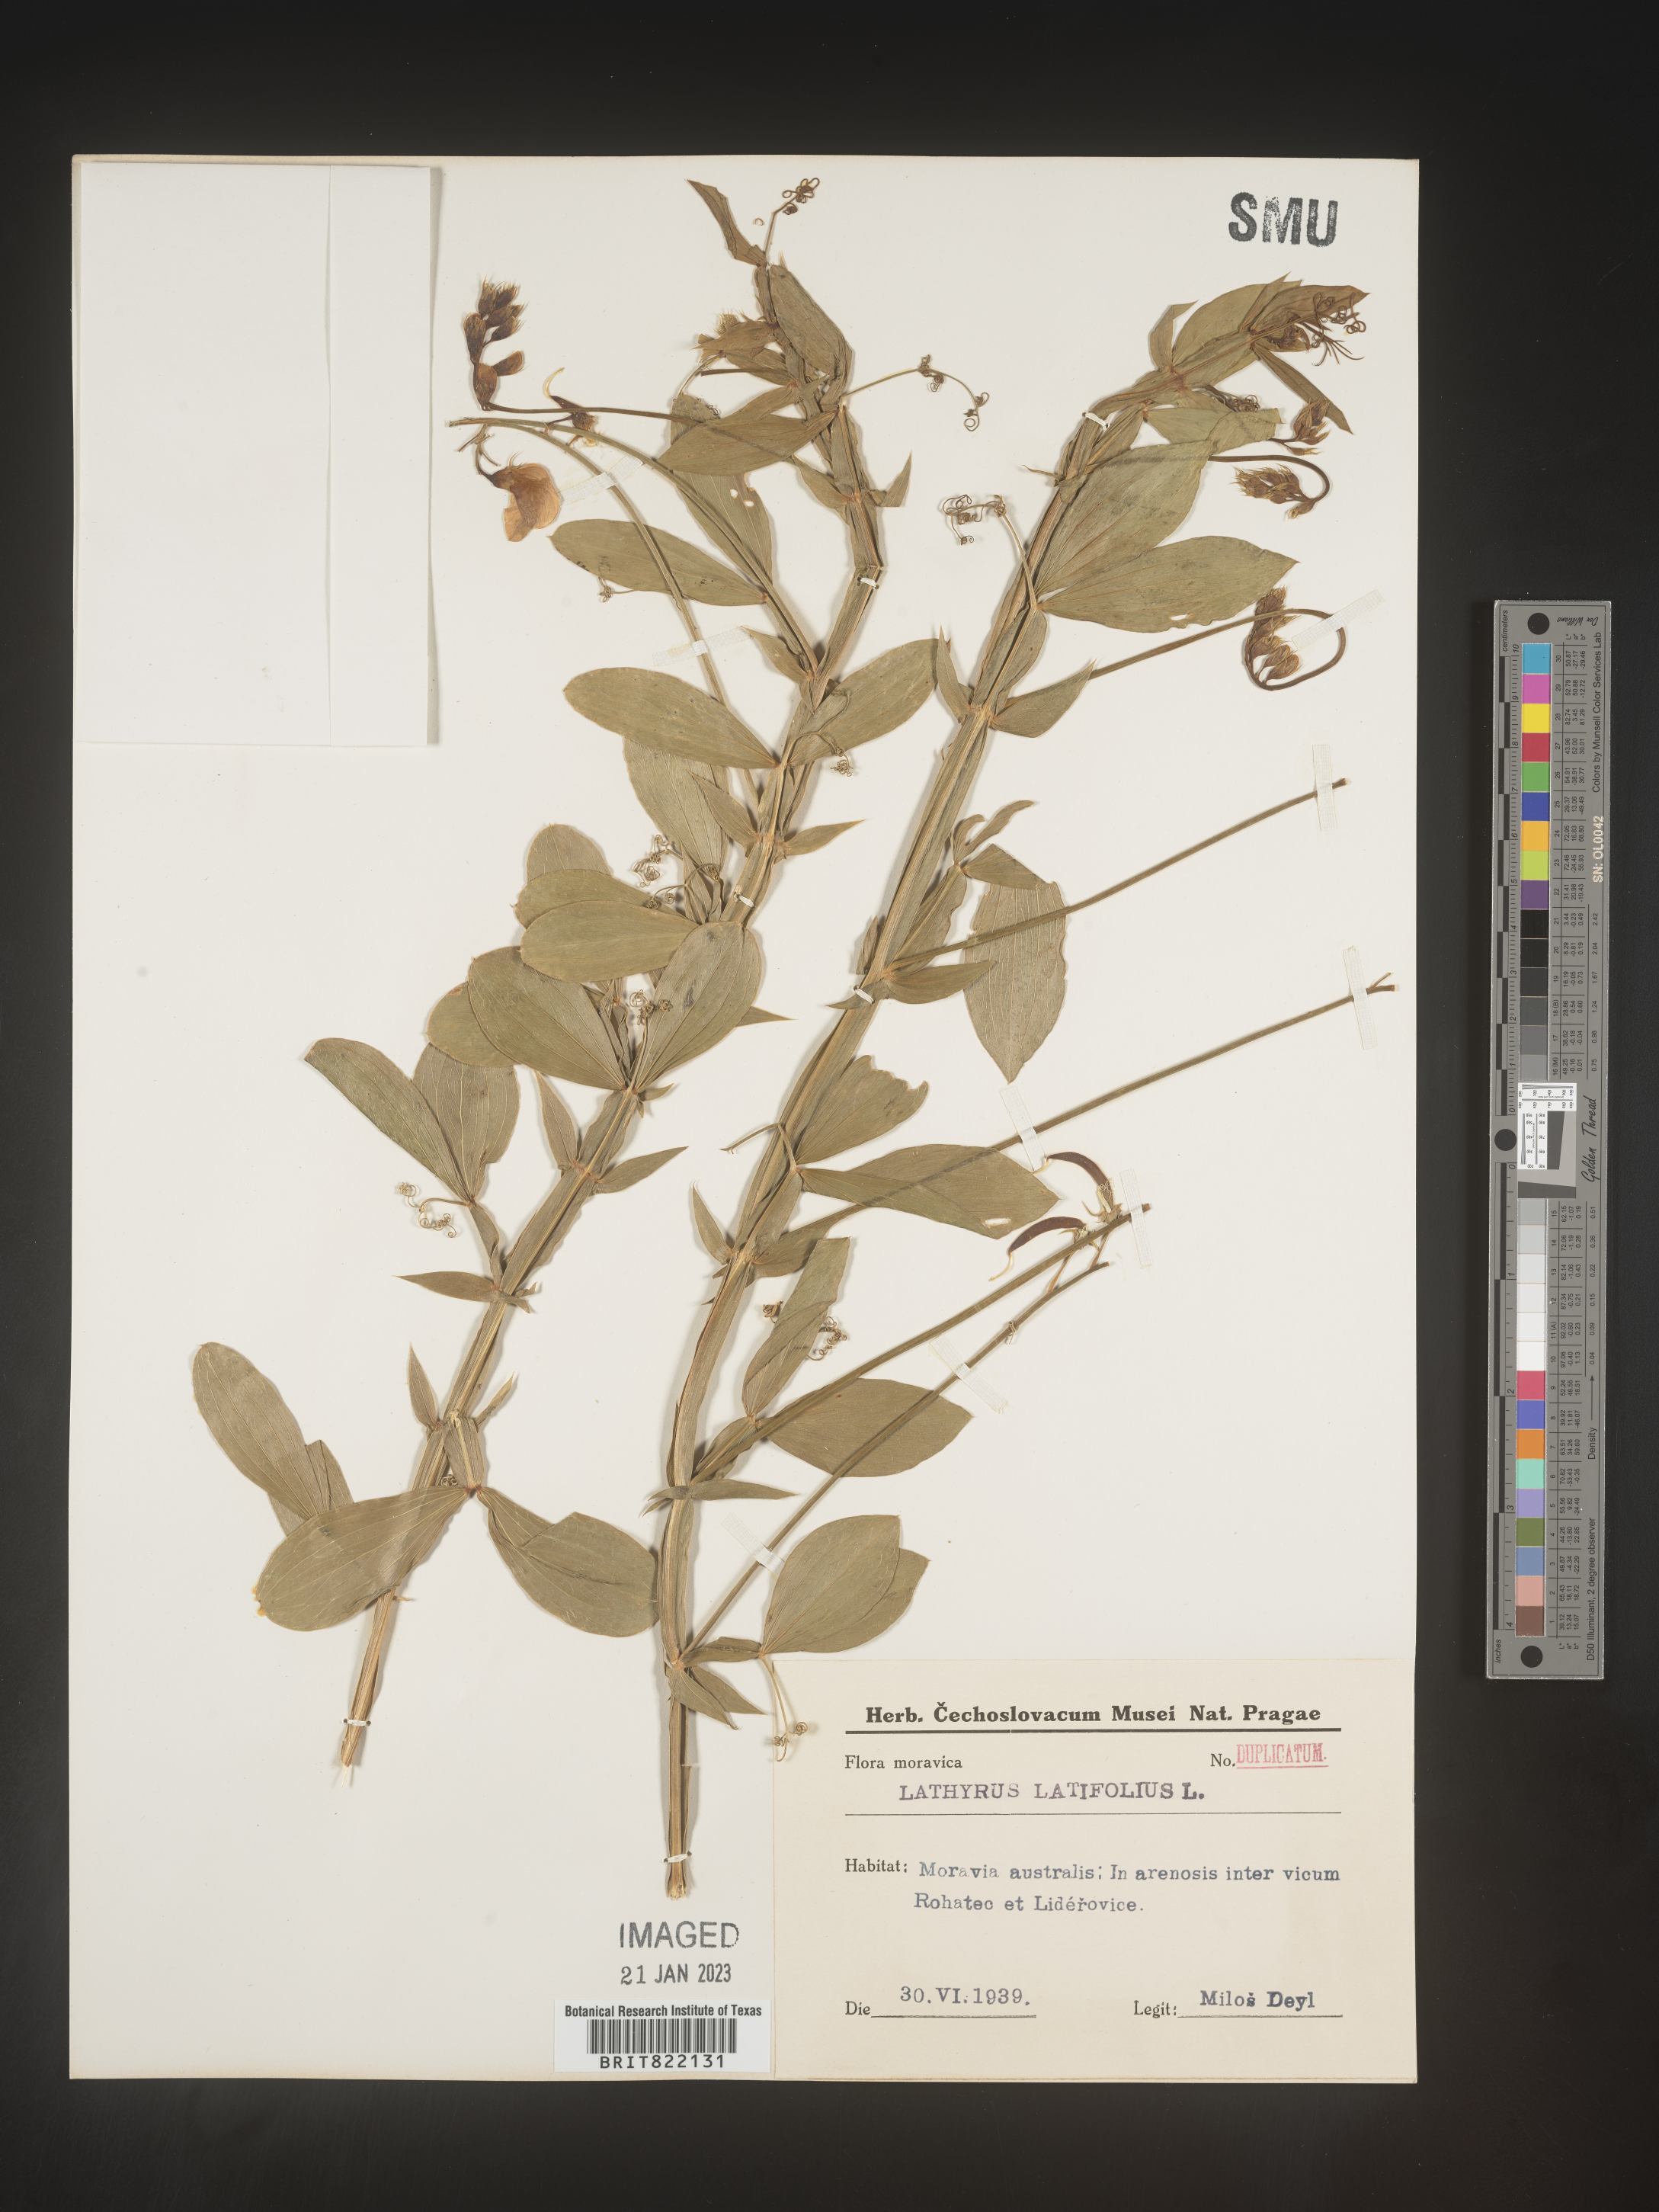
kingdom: Plantae
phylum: Tracheophyta
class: Magnoliopsida
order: Fabales
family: Fabaceae
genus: Lathyrus
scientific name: Lathyrus
